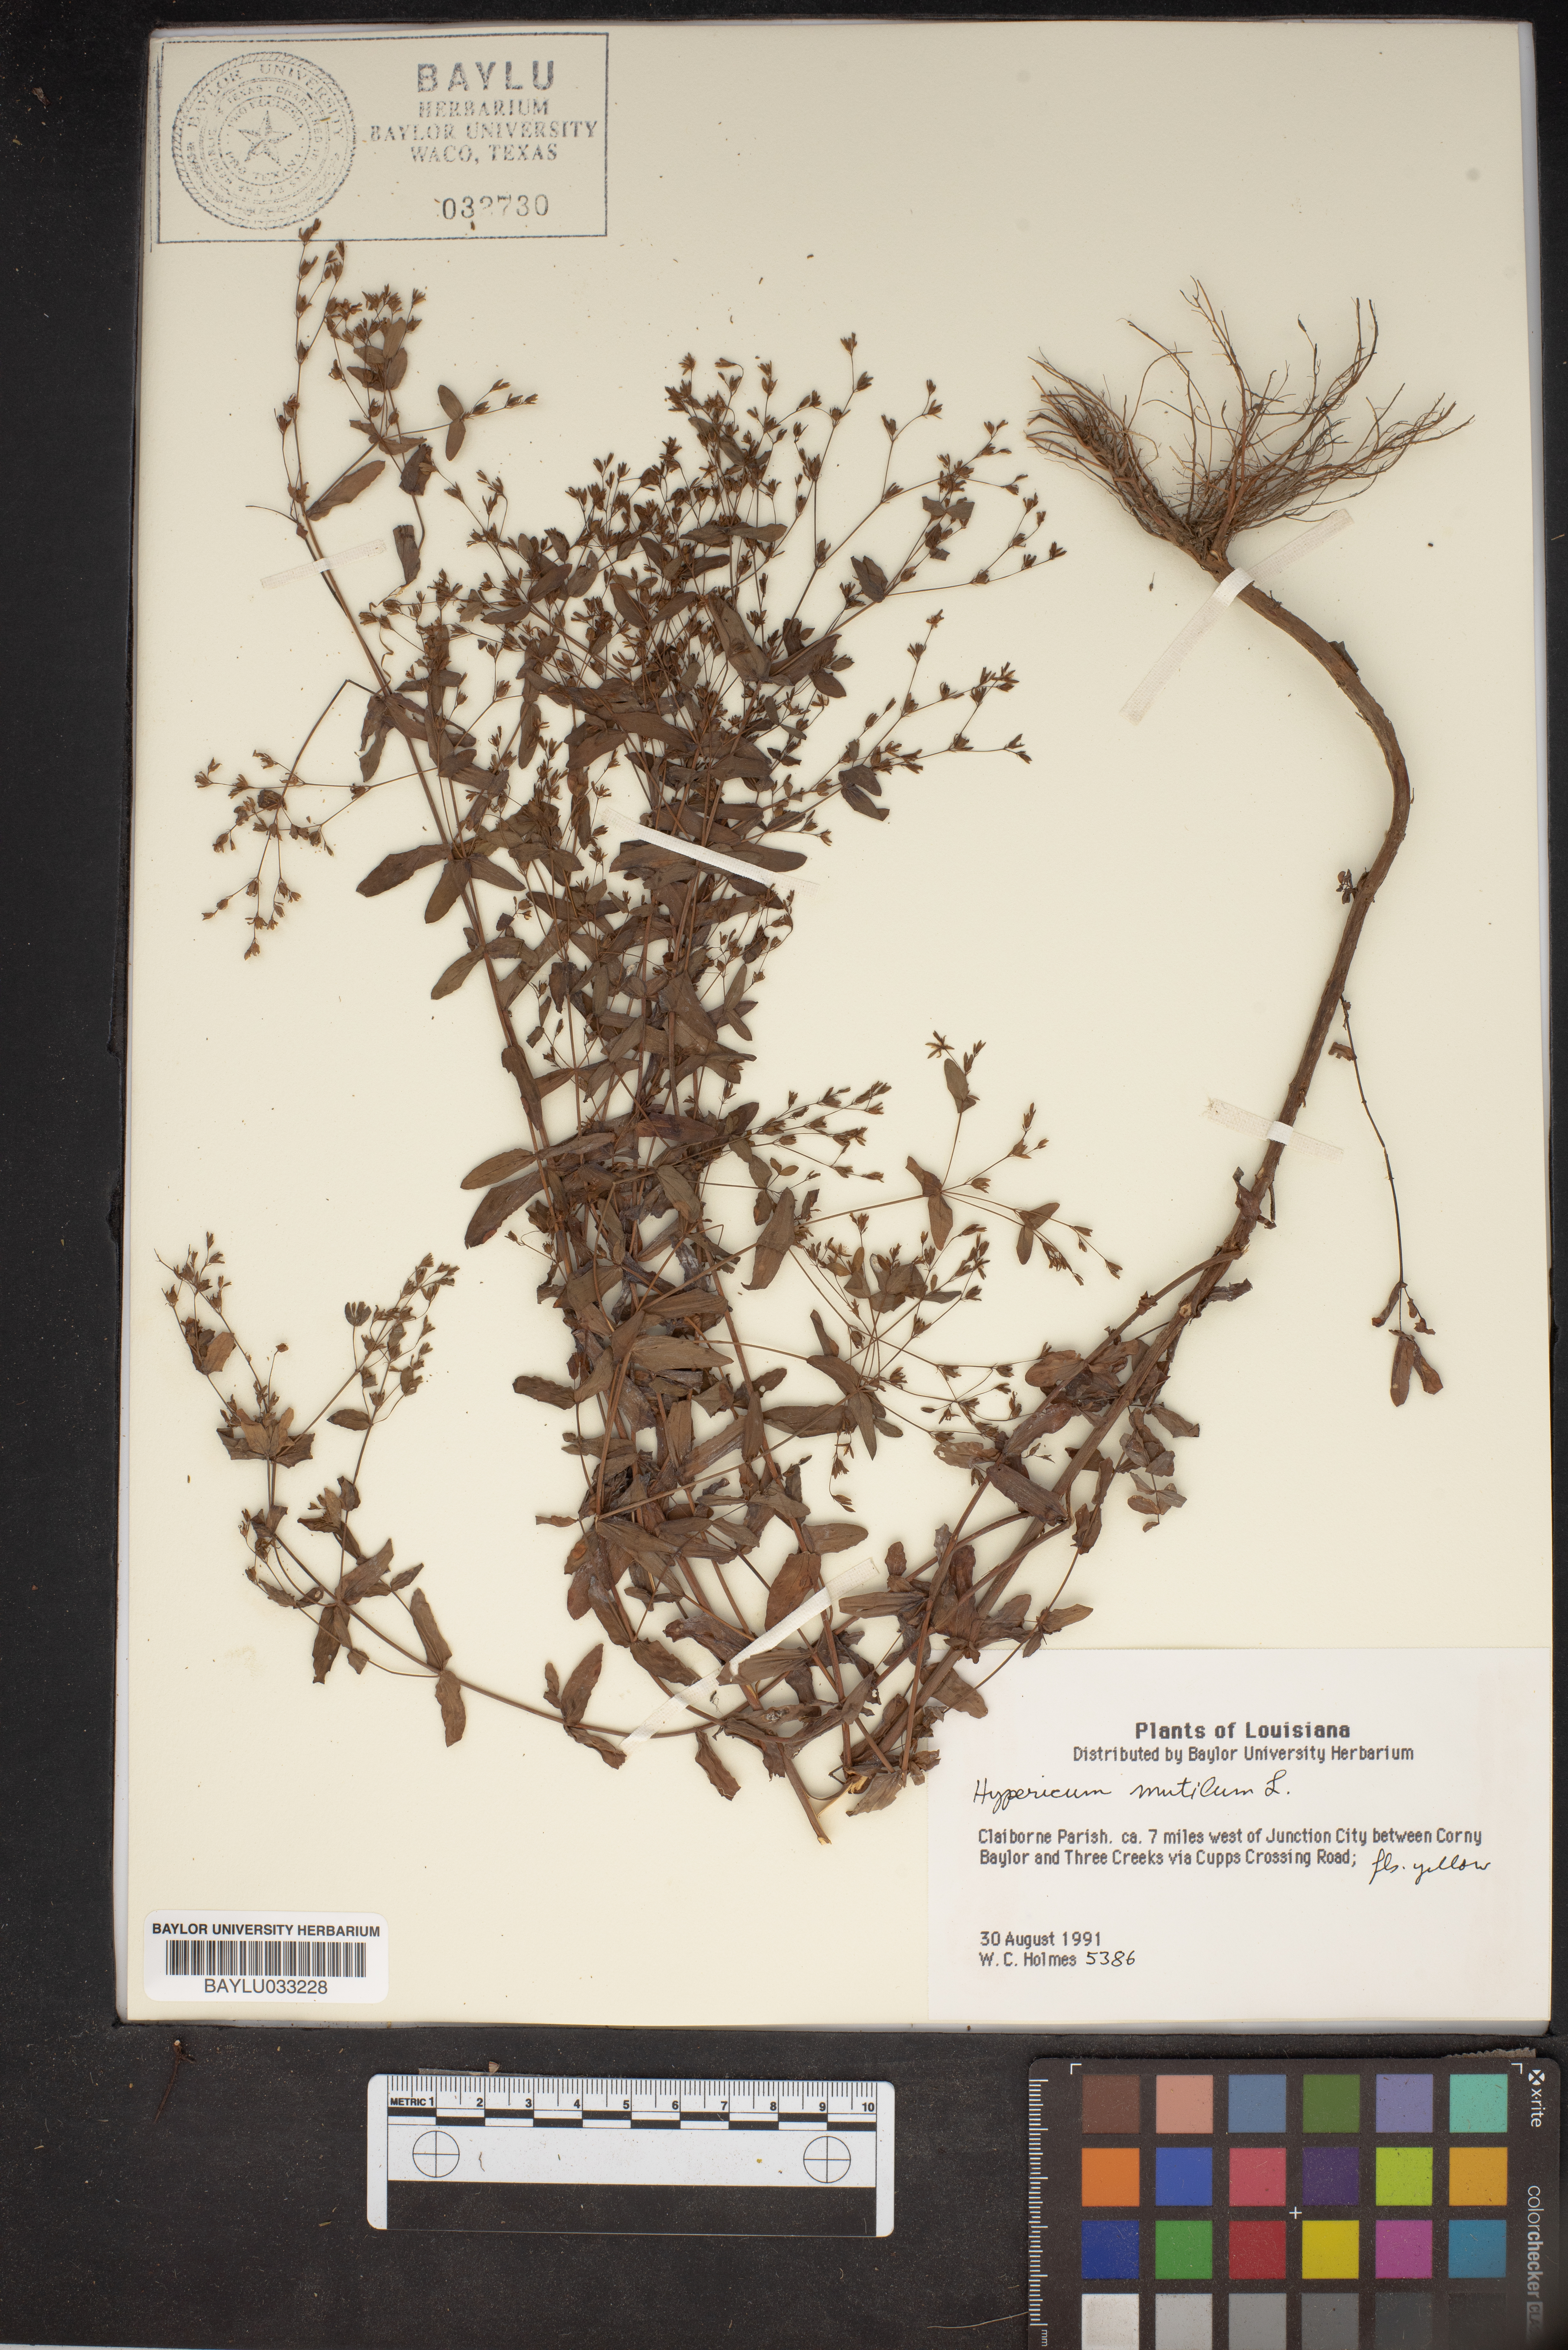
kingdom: Plantae
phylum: Tracheophyta
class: Magnoliopsida
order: Malpighiales
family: Hypericaceae
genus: Hypericum
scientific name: Hypericum mutilum
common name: Dwarf st. john's-wort
